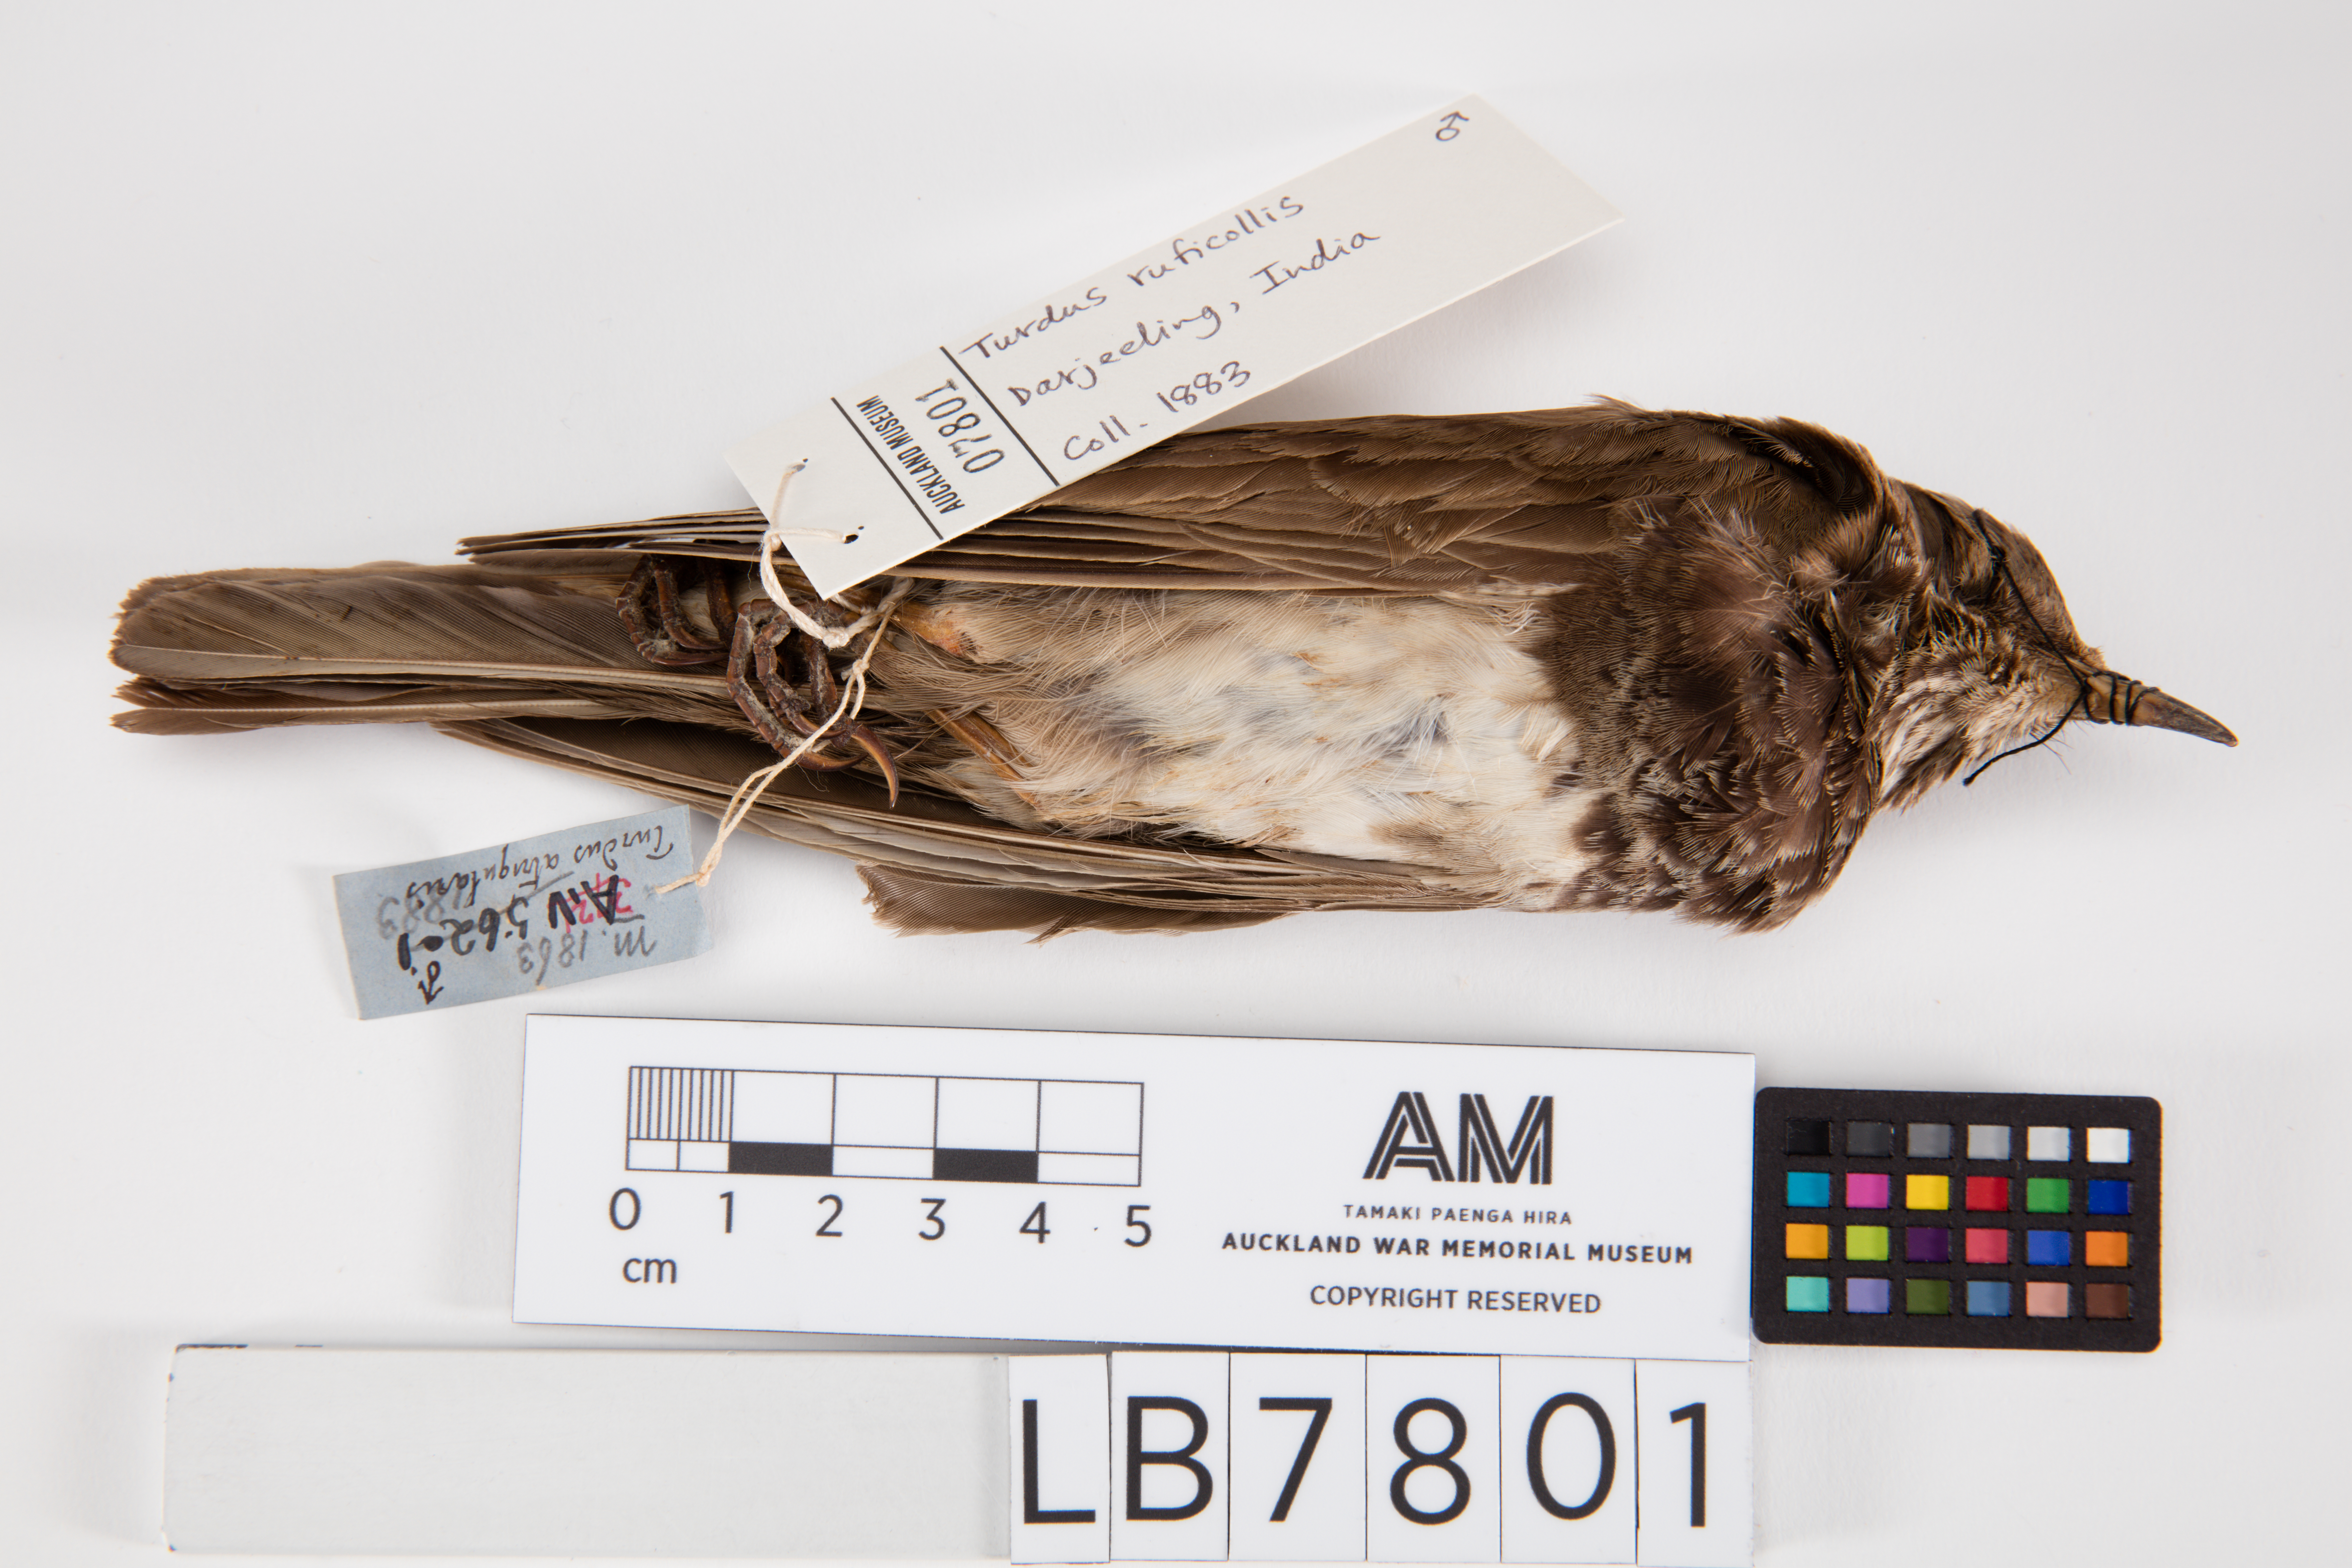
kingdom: Animalia
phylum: Chordata
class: Aves
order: Passeriformes
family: Turdidae
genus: Turdus
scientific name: Turdus ruficollis
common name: Red-throated thrush
